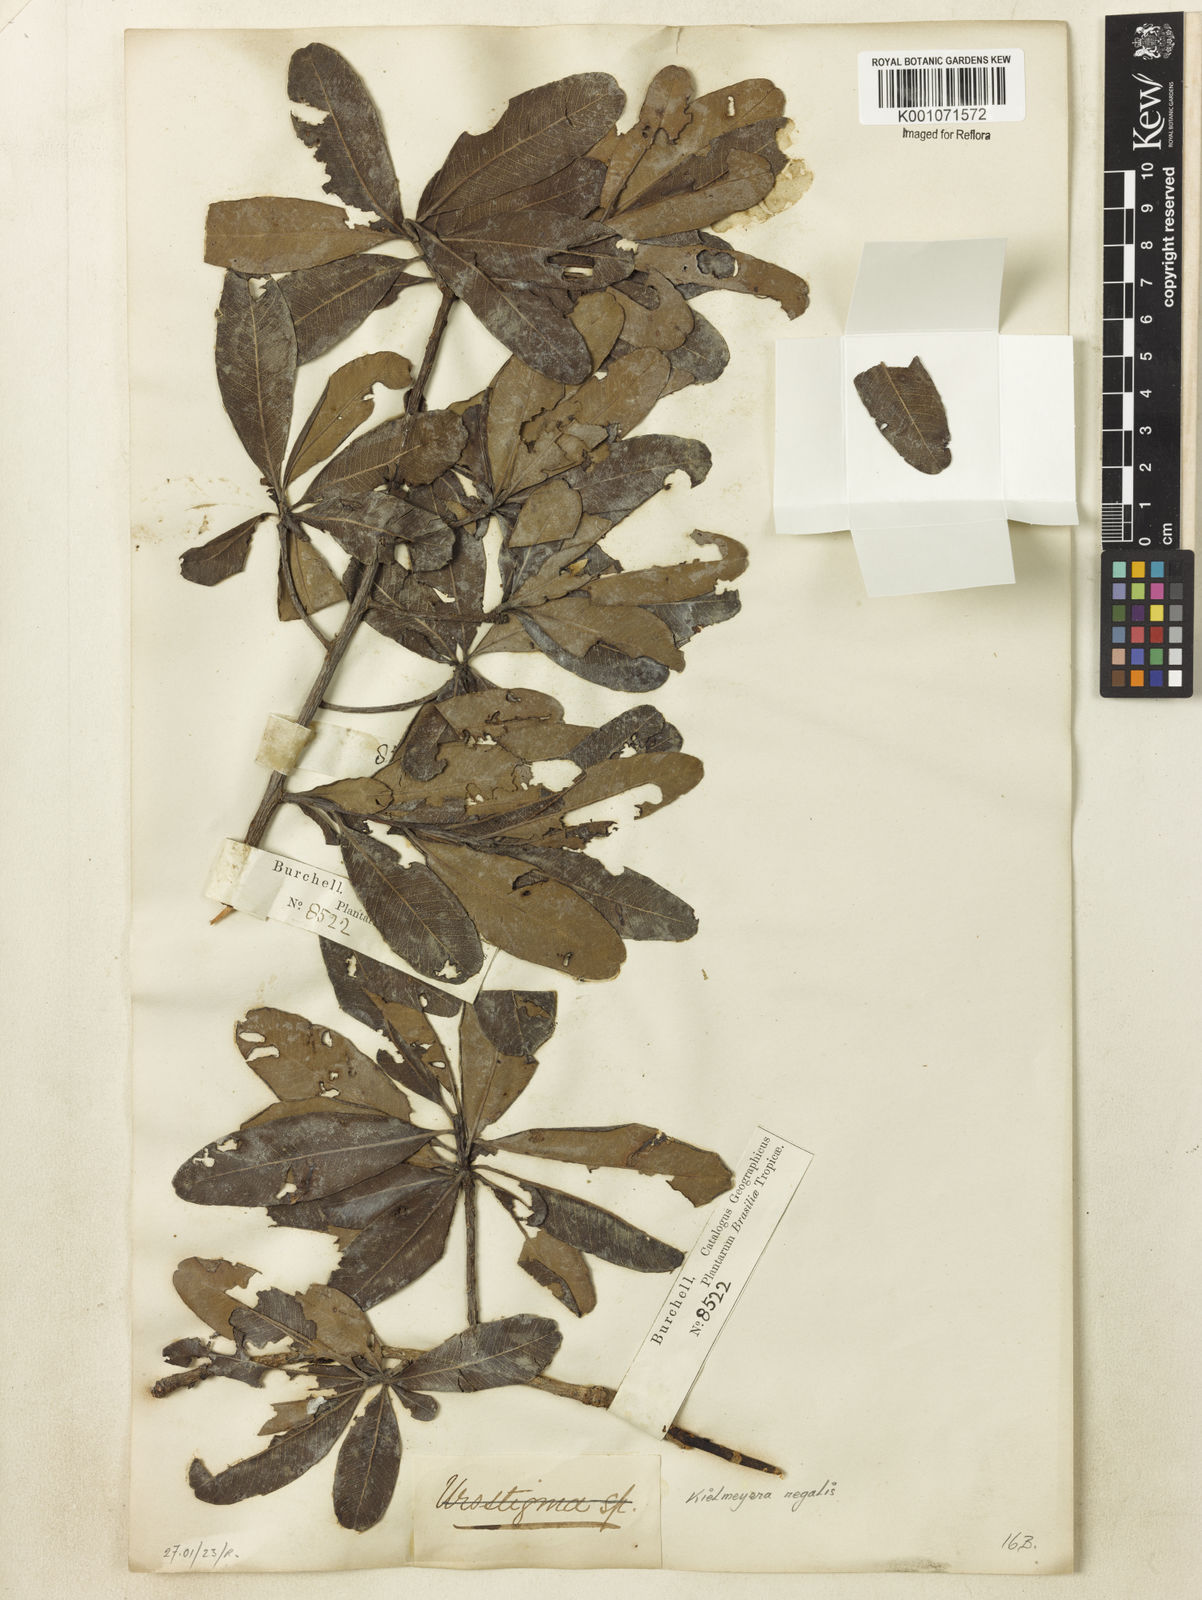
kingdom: Plantae
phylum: Tracheophyta
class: Magnoliopsida
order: Malpighiales
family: Calophyllaceae
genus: Kielmeyera
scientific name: Kielmeyera regalis
